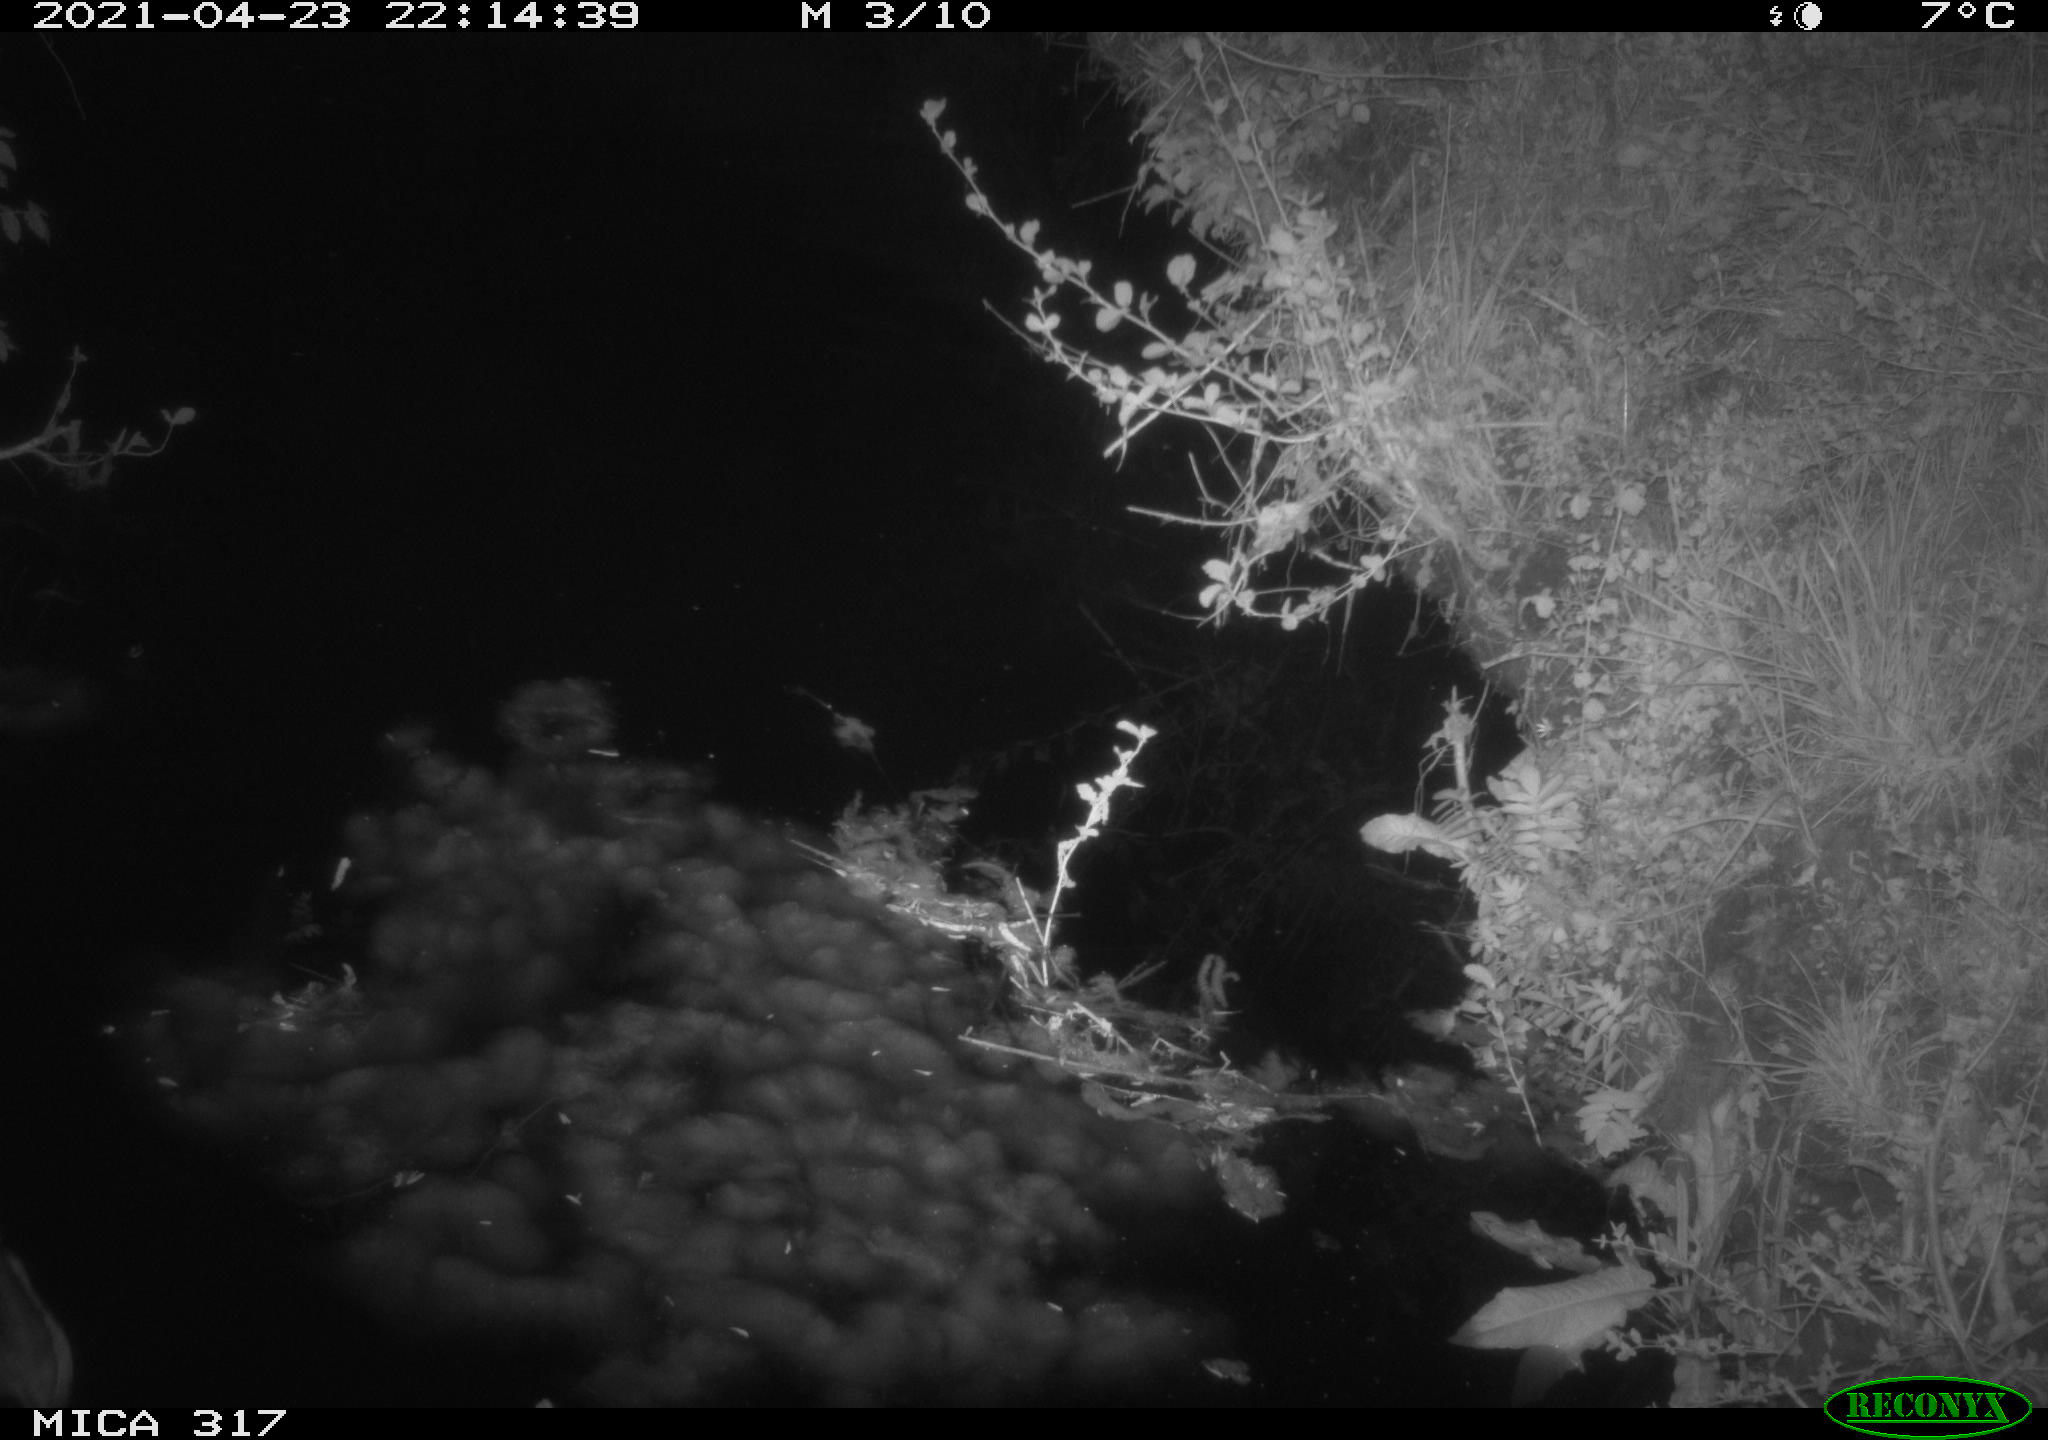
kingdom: Animalia
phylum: Chordata
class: Aves
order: Anseriformes
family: Anatidae
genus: Anas
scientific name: Anas
